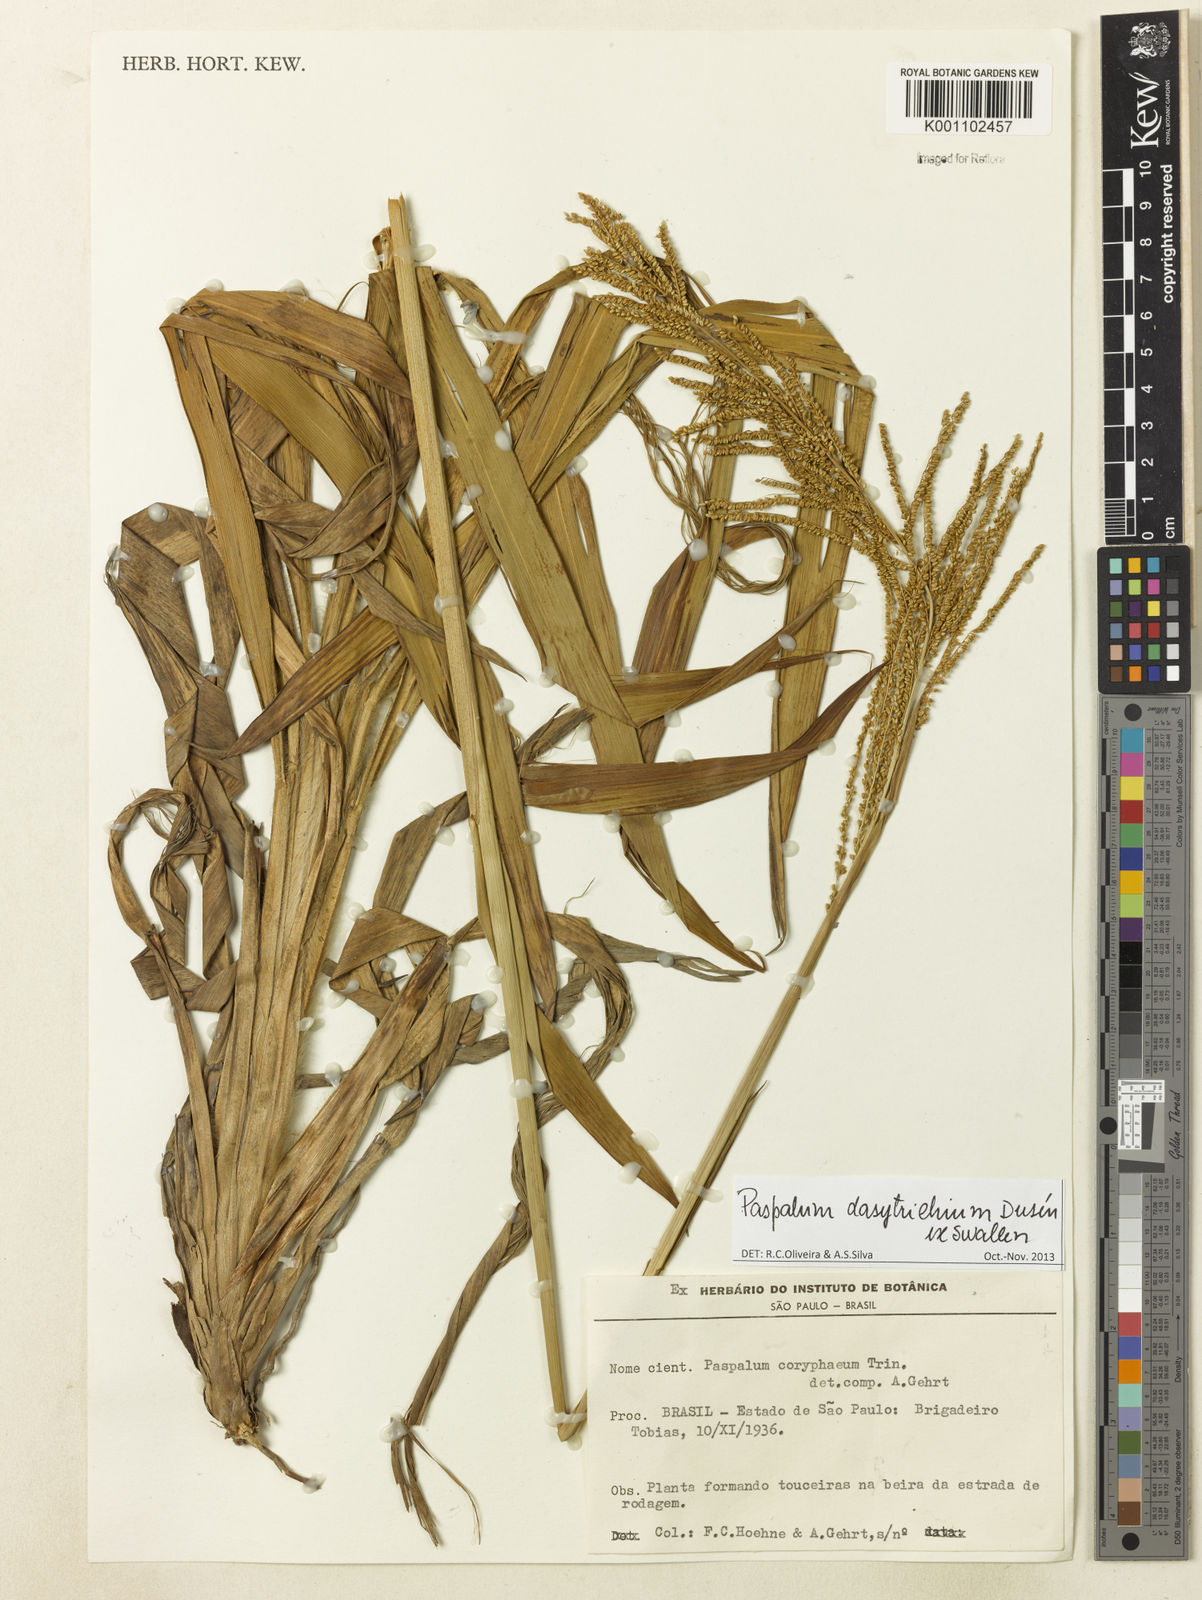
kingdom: Plantae
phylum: Tracheophyta
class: Liliopsida
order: Poales
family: Poaceae
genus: Paspalum
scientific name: Paspalum
